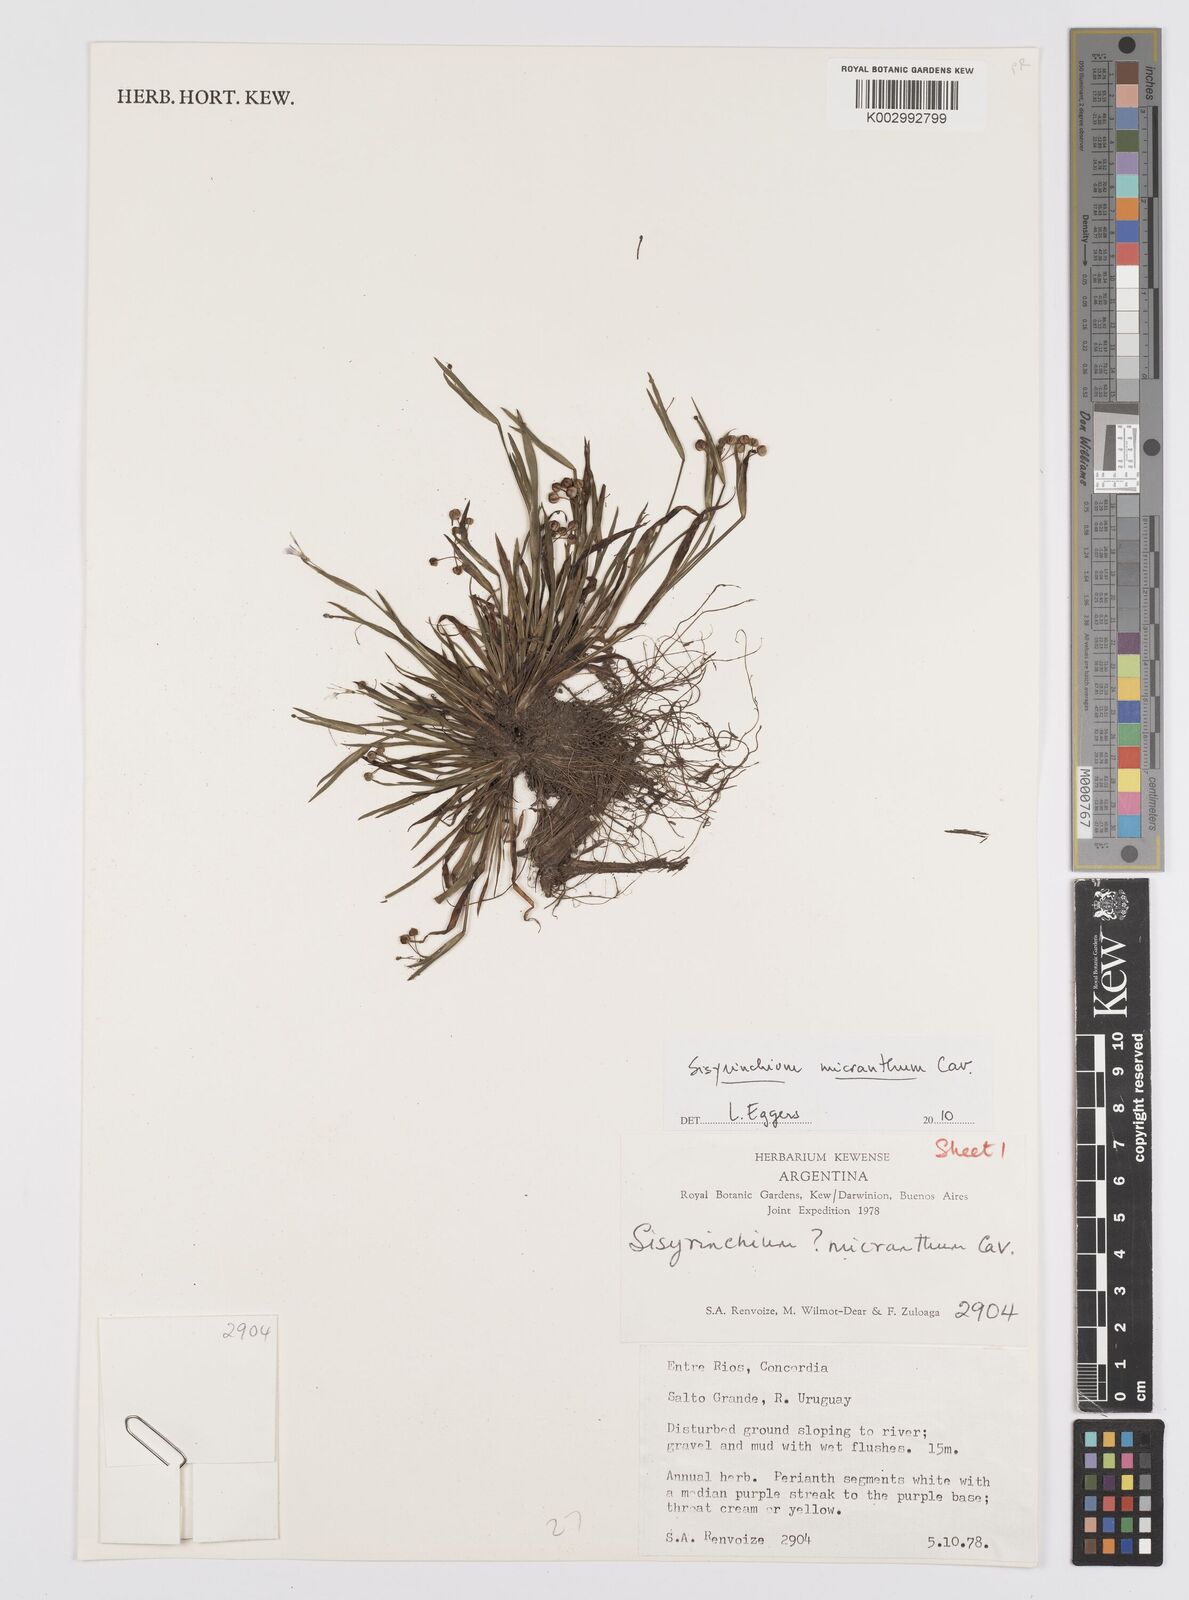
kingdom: Plantae
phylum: Tracheophyta
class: Liliopsida
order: Asparagales
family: Iridaceae
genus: Sisyrinchium
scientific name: Sisyrinchium micranthum
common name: Bermuda pigroot
